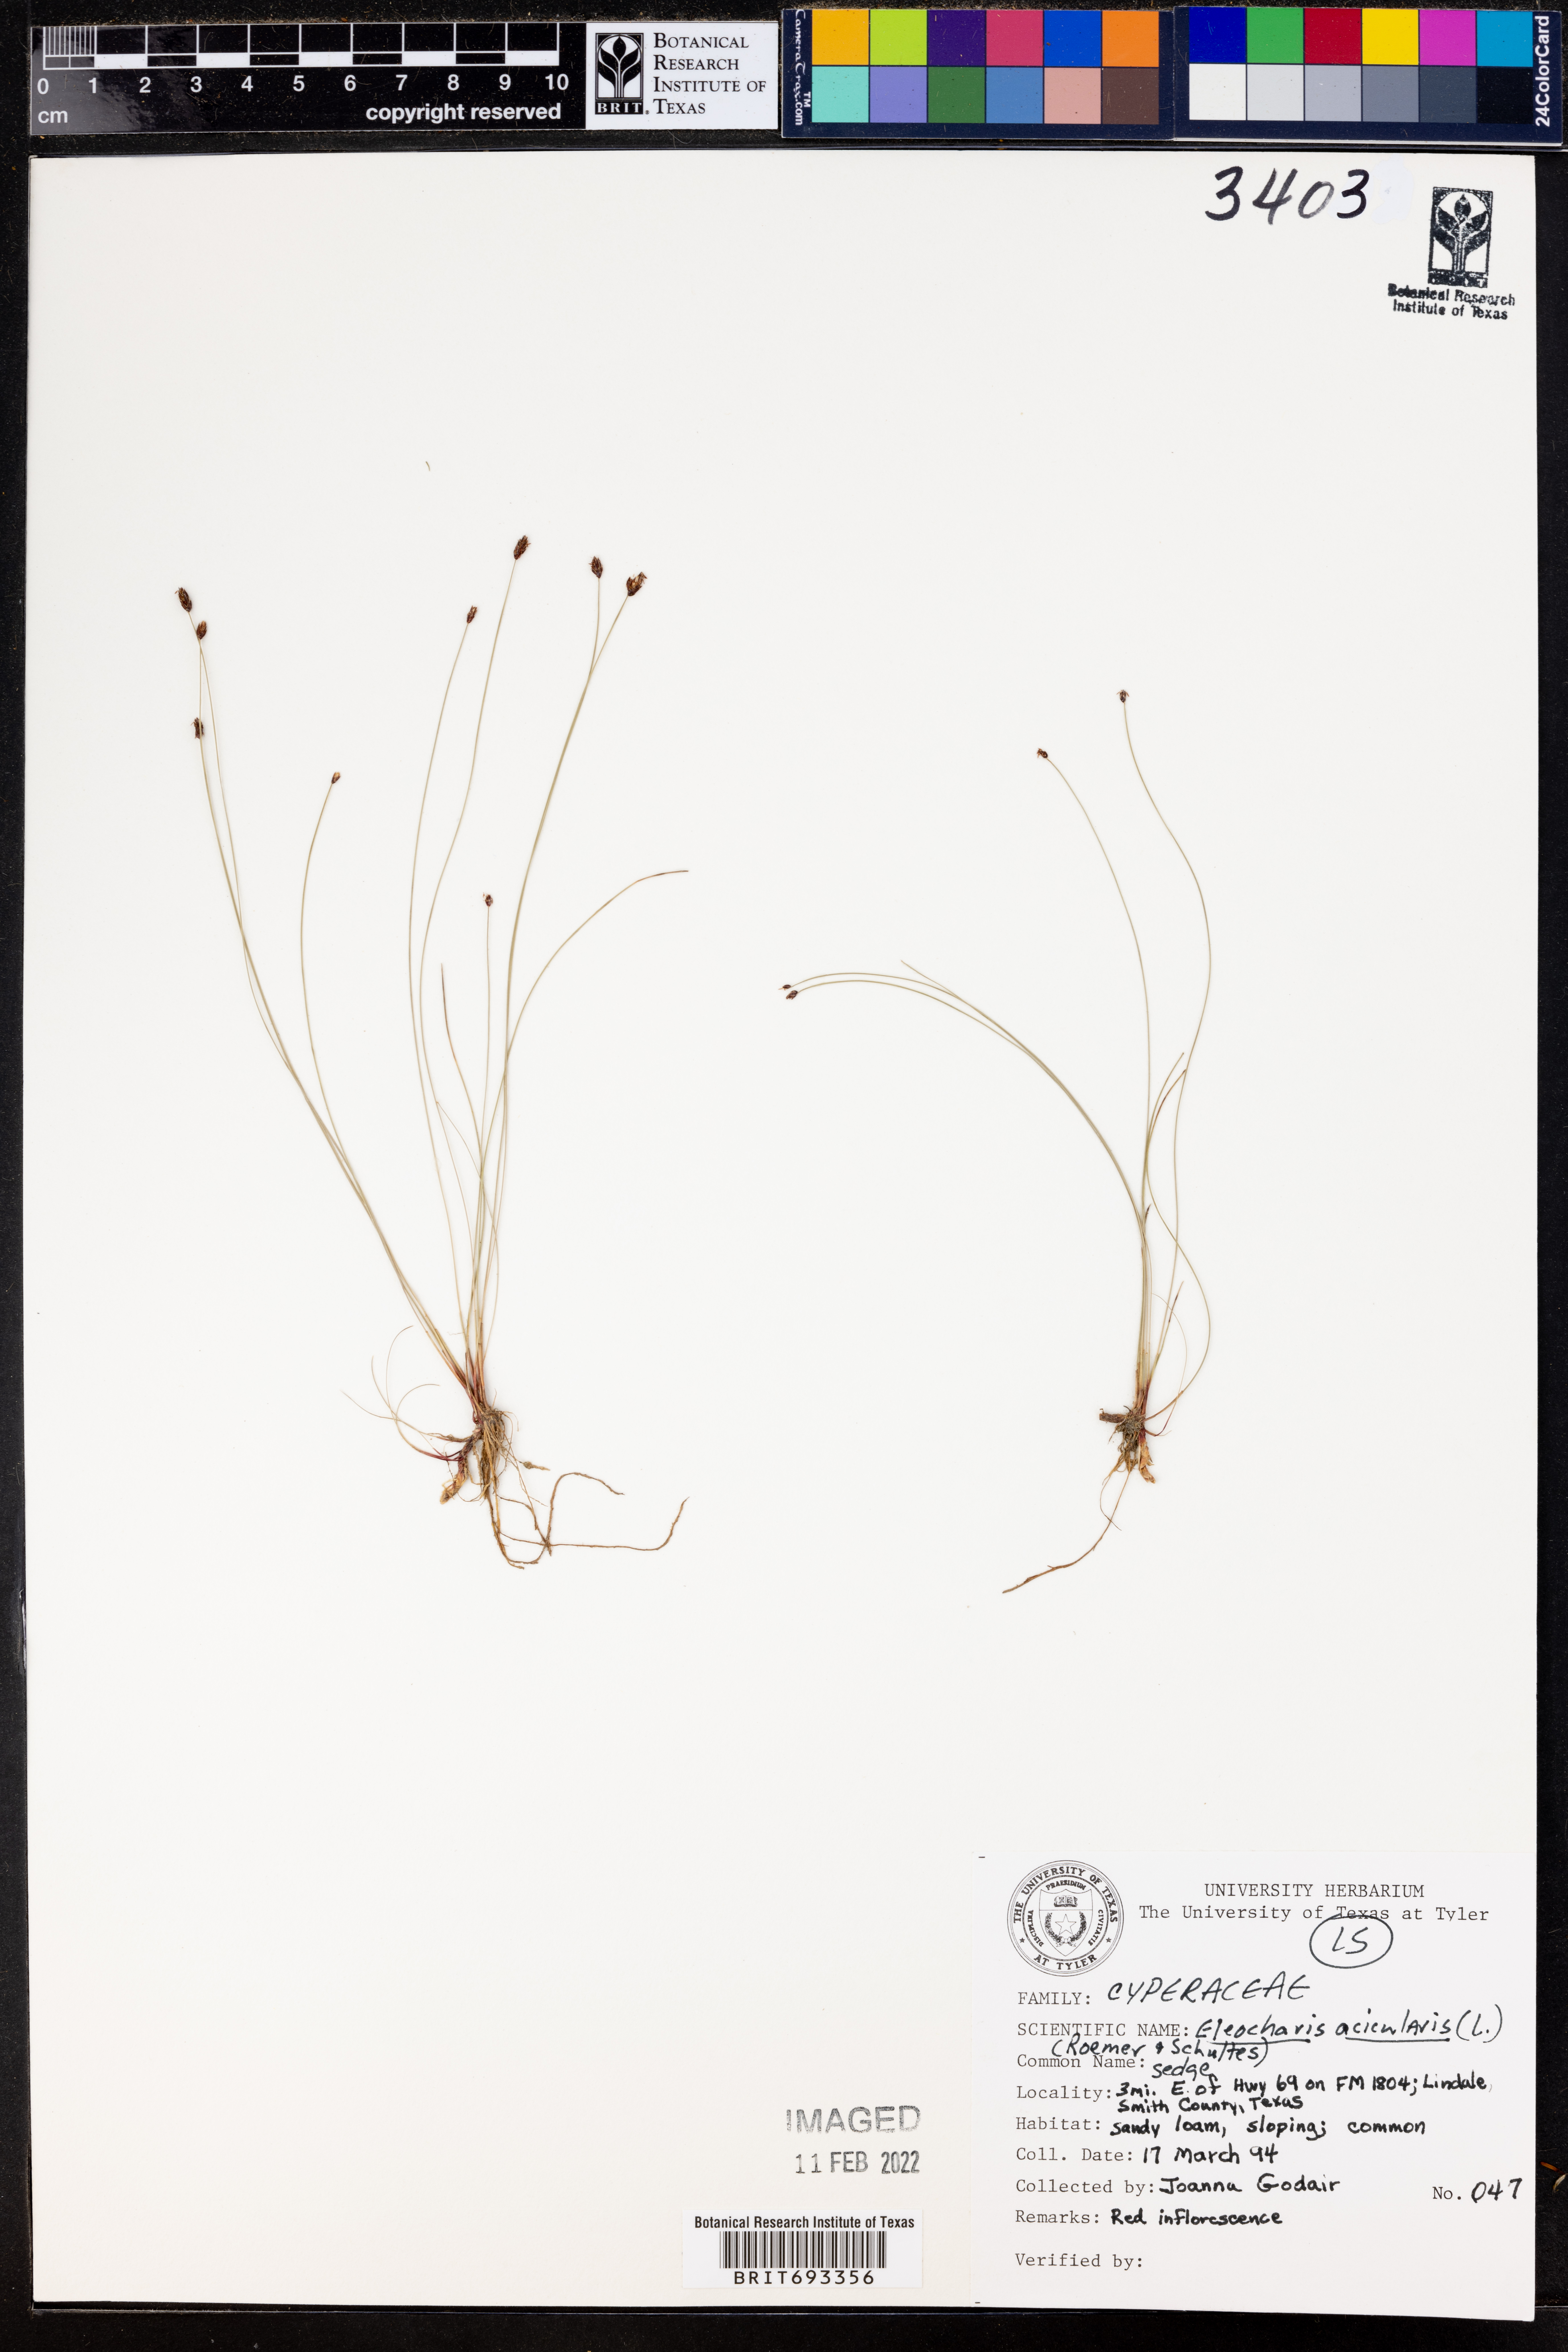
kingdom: Plantae
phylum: Tracheophyta
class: Liliopsida
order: Poales
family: Cyperaceae
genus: Eleocharis
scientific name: Eleocharis acicularis
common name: Needle spike-rush
